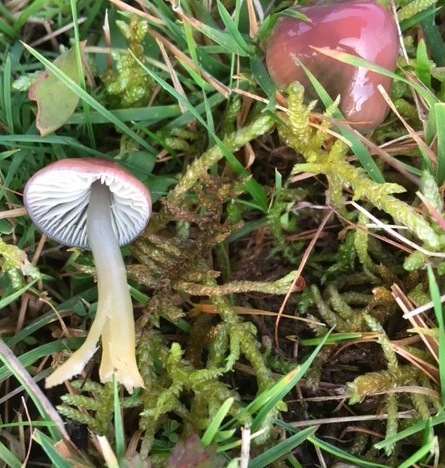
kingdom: Fungi
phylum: Basidiomycota
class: Agaricomycetes
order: Agaricales
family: Hygrophoraceae
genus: Gliophorus
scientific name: Gliophorus psittacinus
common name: papegøje-vokshat
